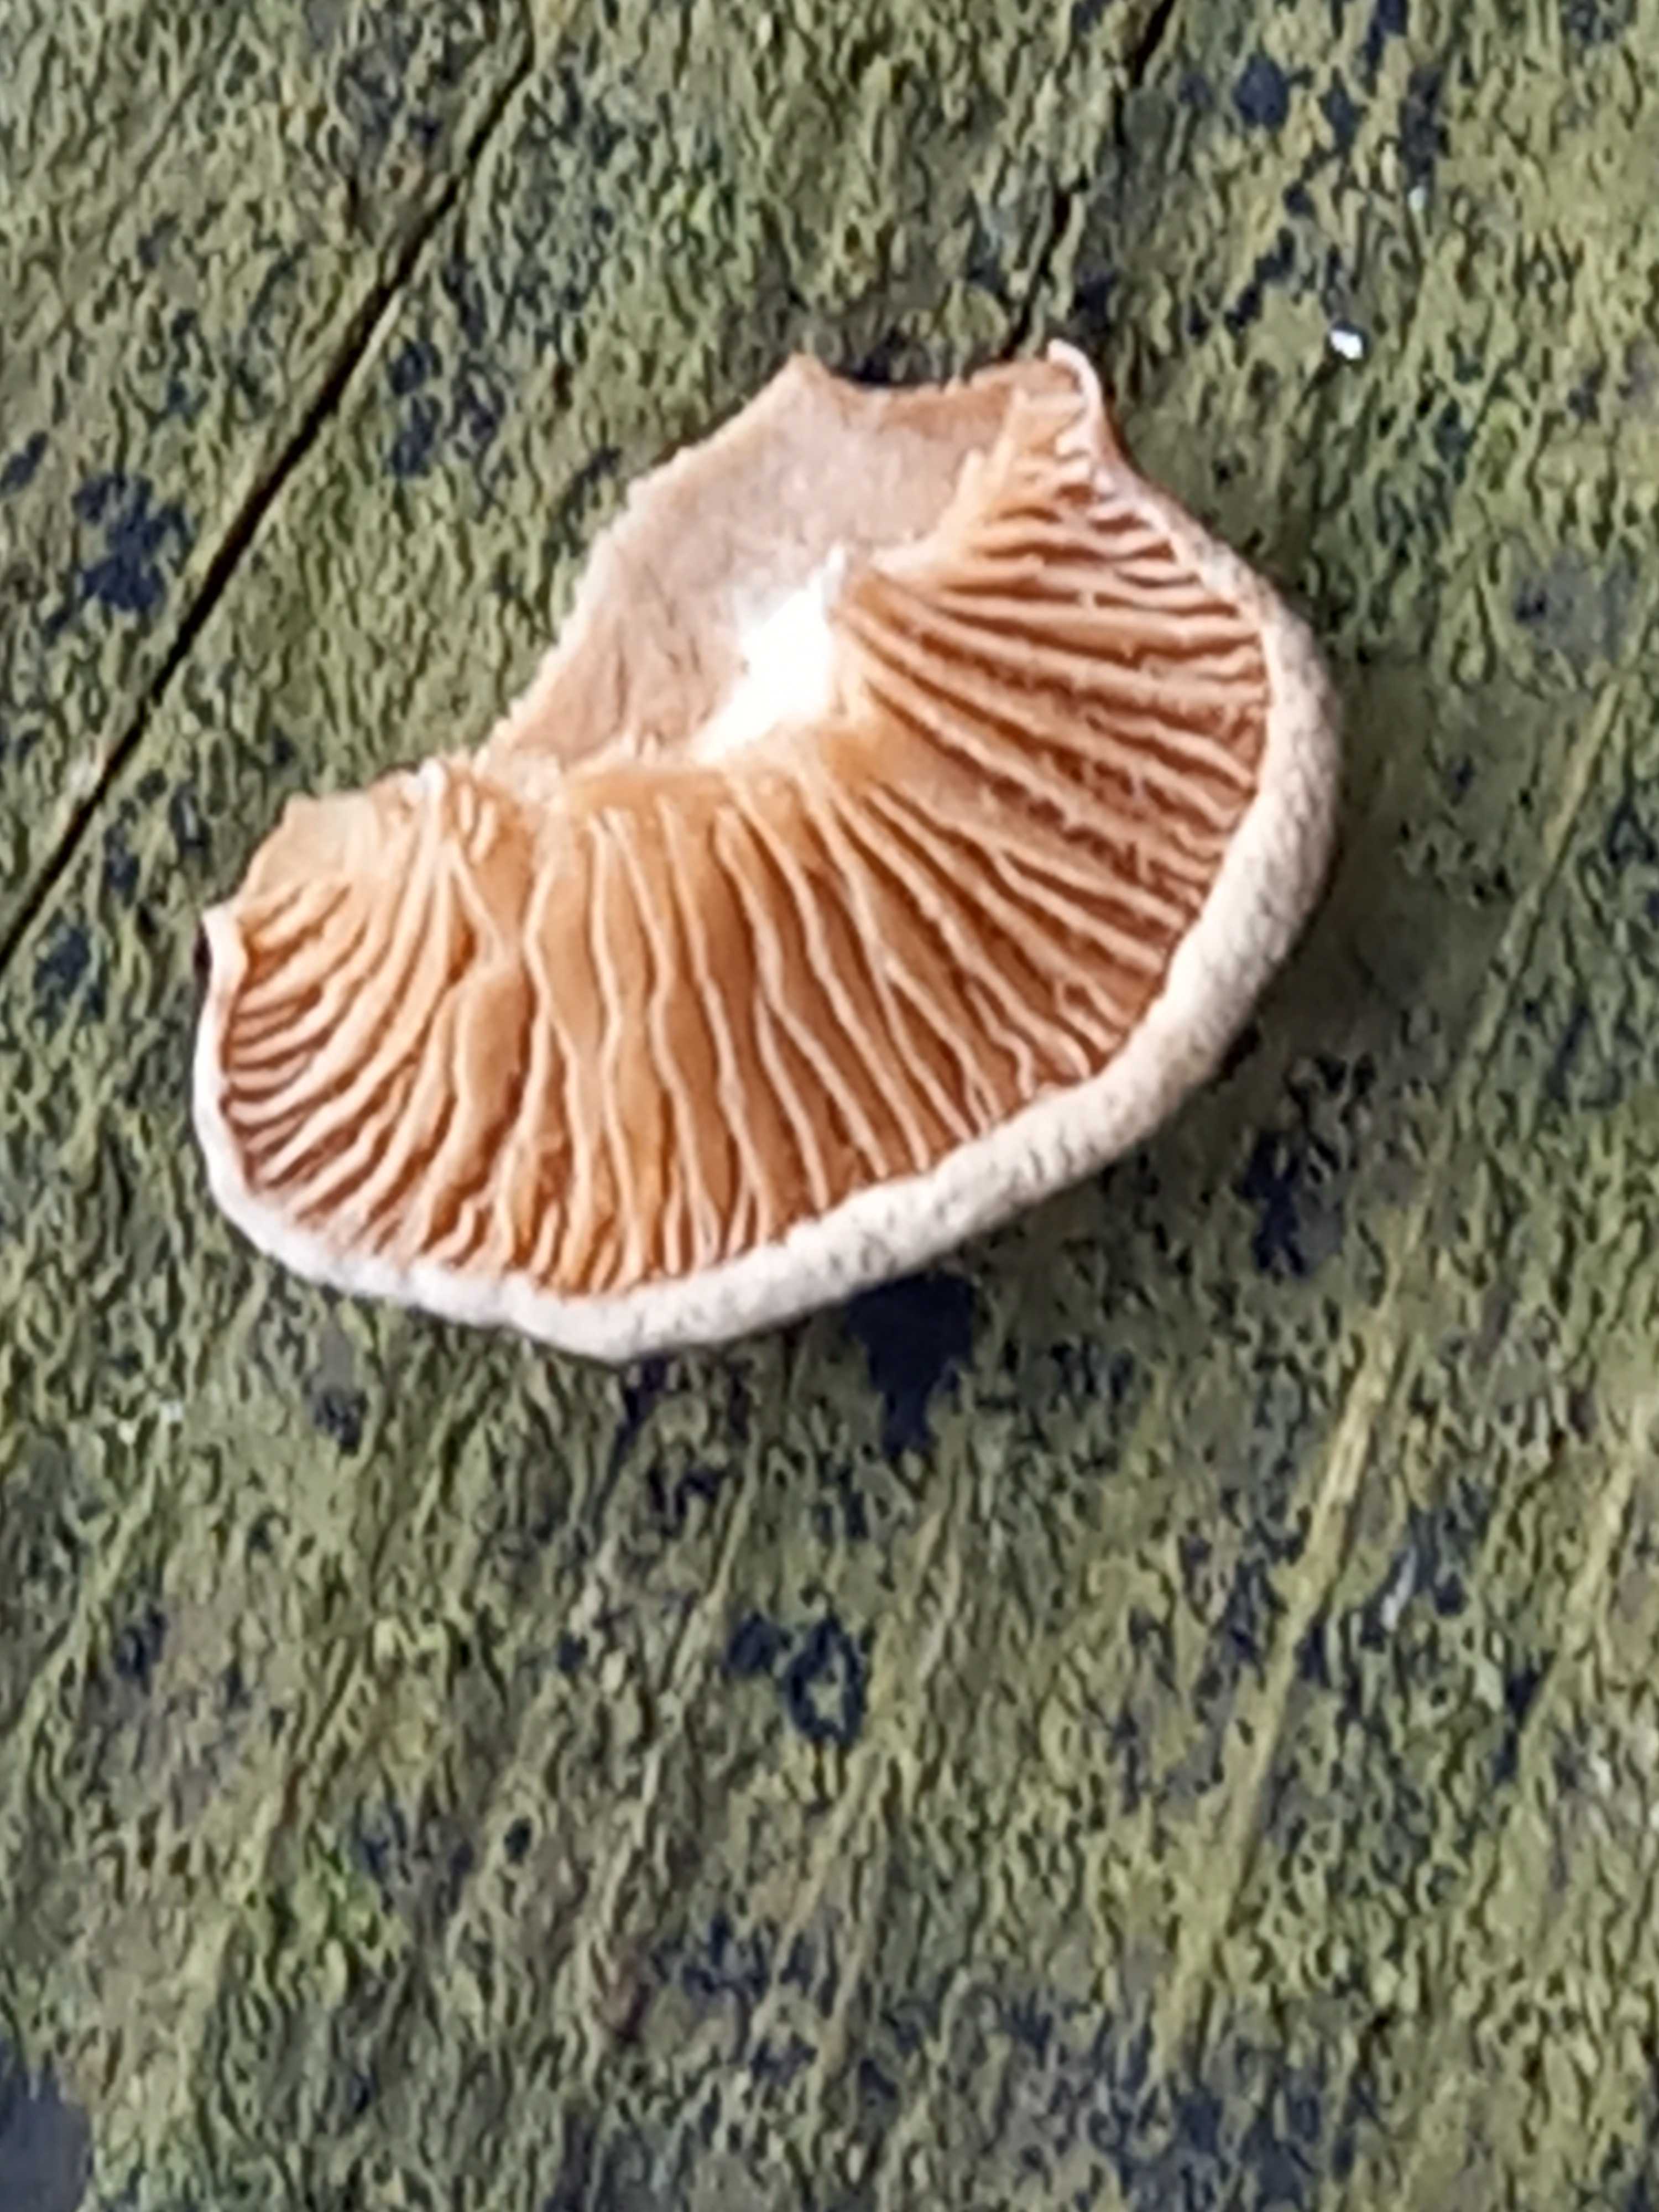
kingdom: Fungi
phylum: Basidiomycota
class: Agaricomycetes
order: Agaricales
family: Mycenaceae
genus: Panellus
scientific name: Panellus stipticus
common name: kliddet epaulethat
